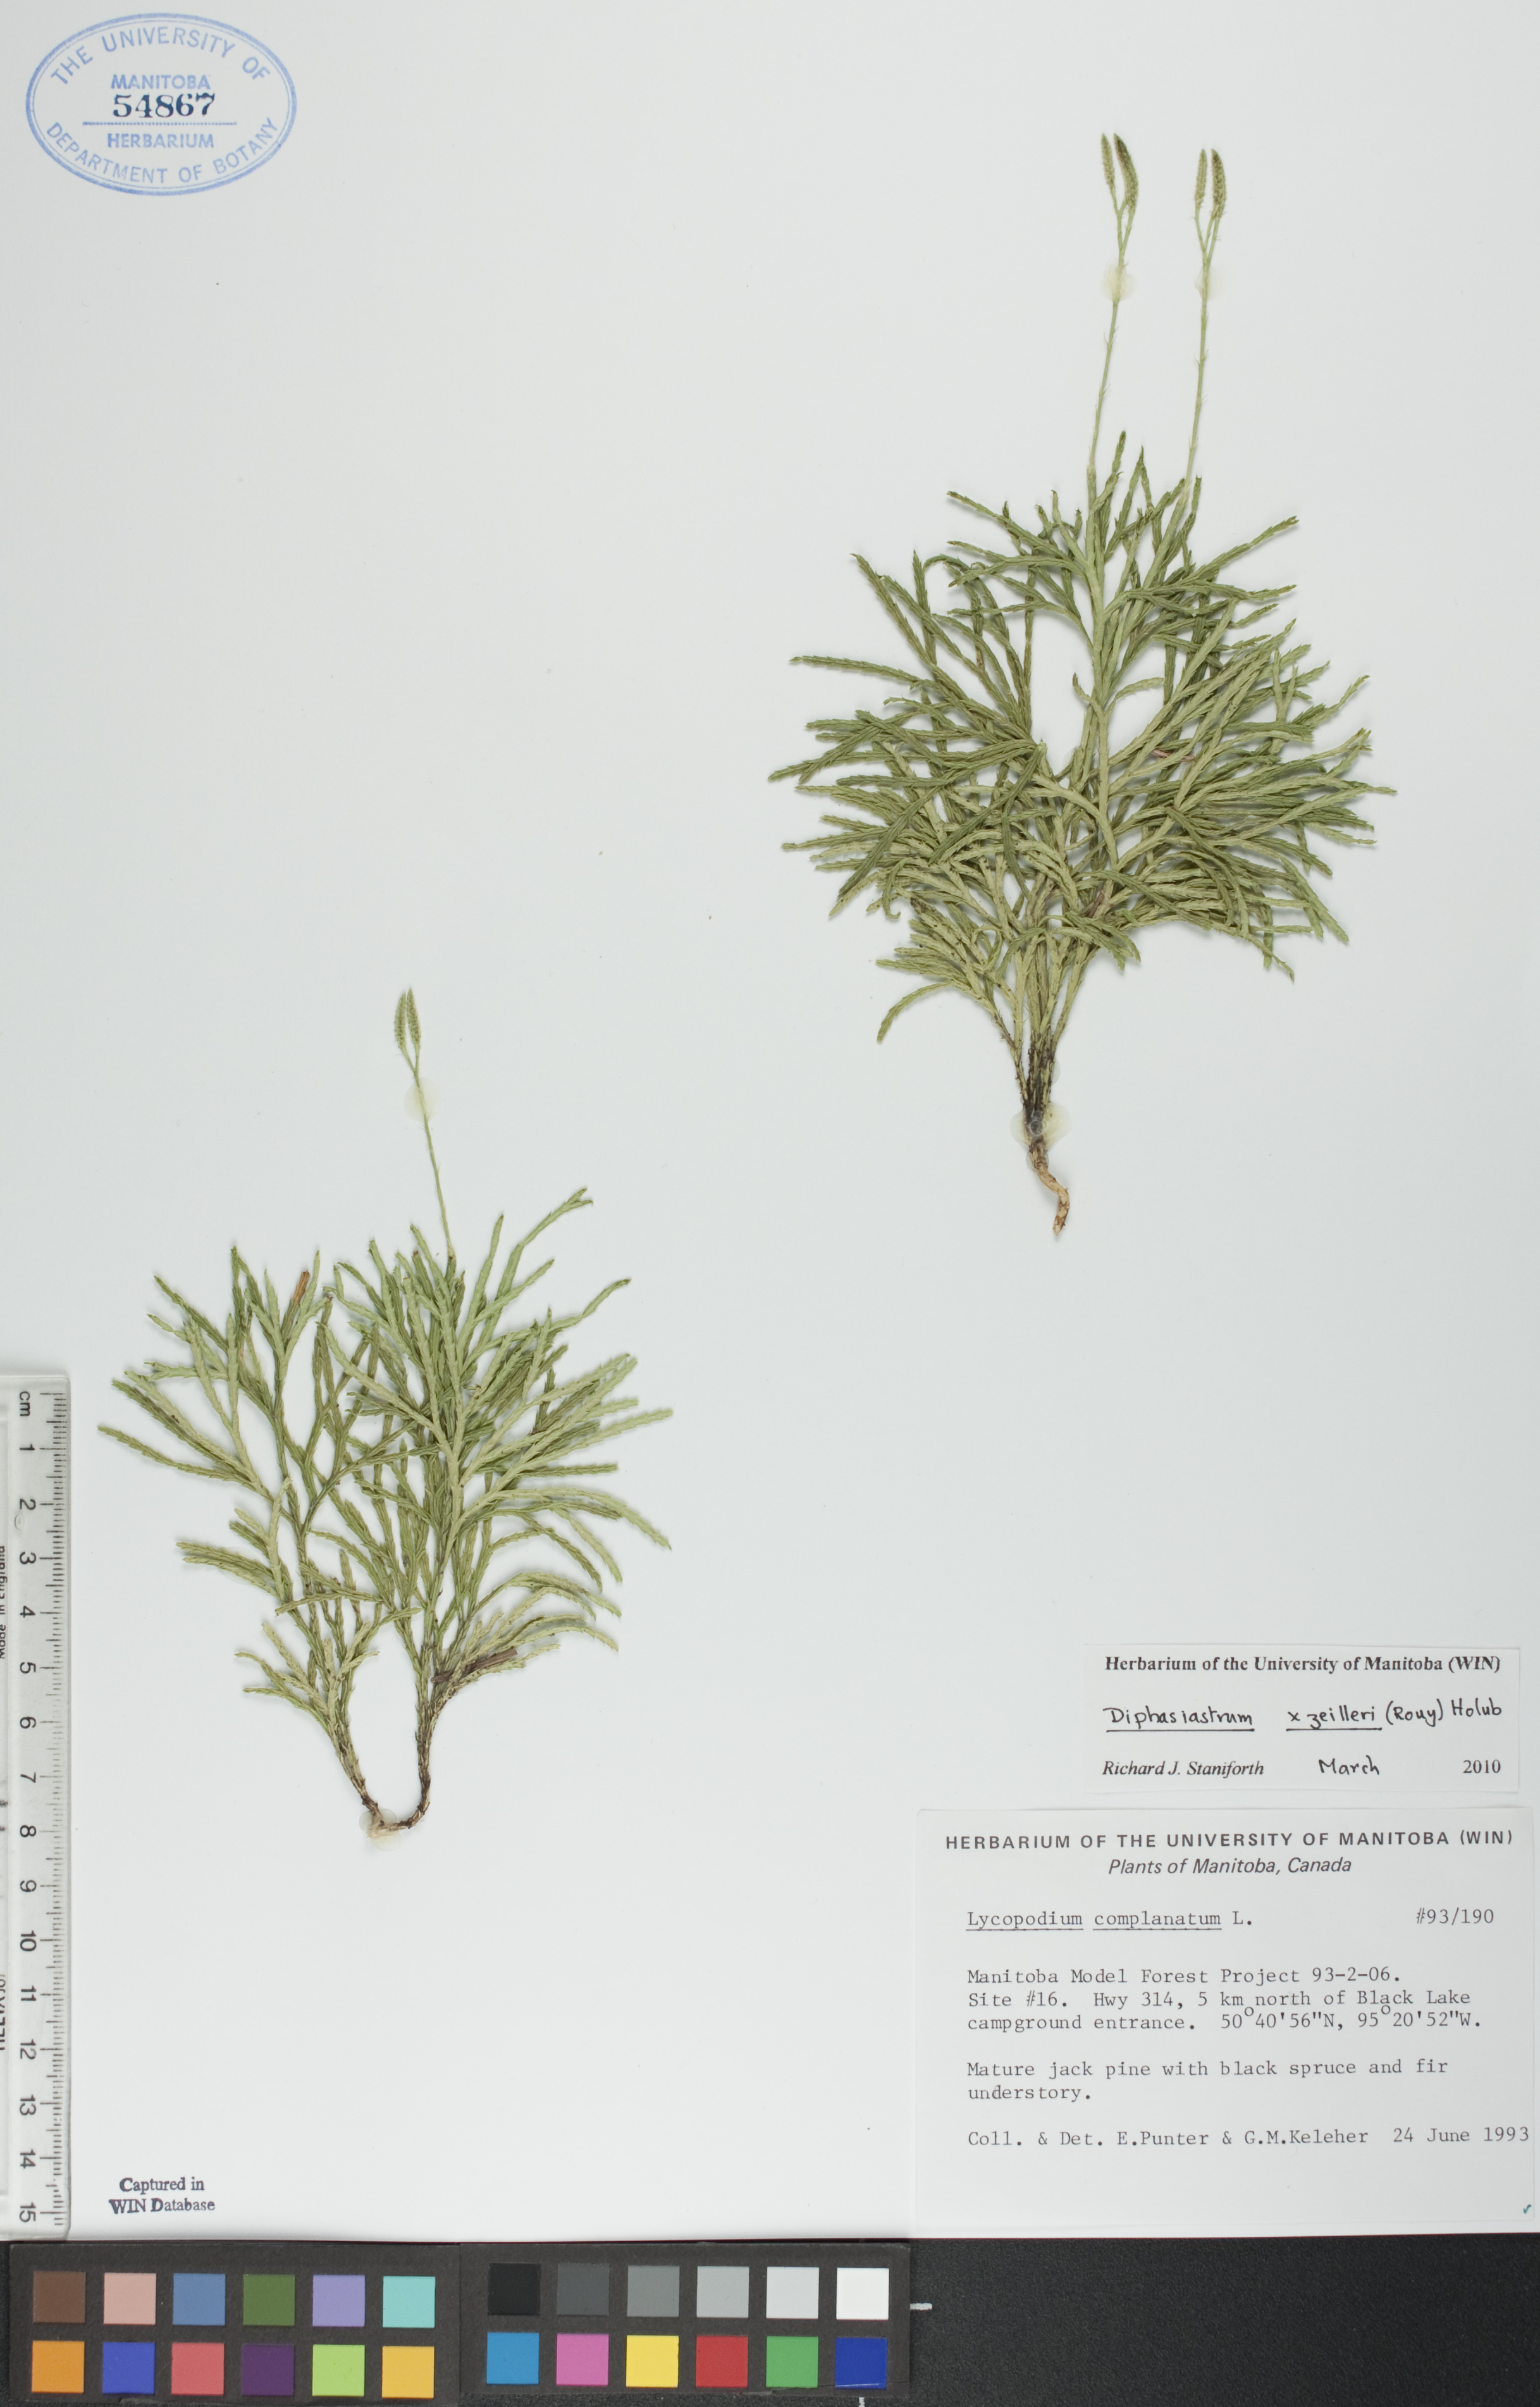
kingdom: Plantae
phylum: Tracheophyta
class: Lycopodiopsida
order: Lycopodiales
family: Lycopodiaceae
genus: Diphasiastrum
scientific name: Diphasiastrum zeilleri
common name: Zeiller's clubmoss
